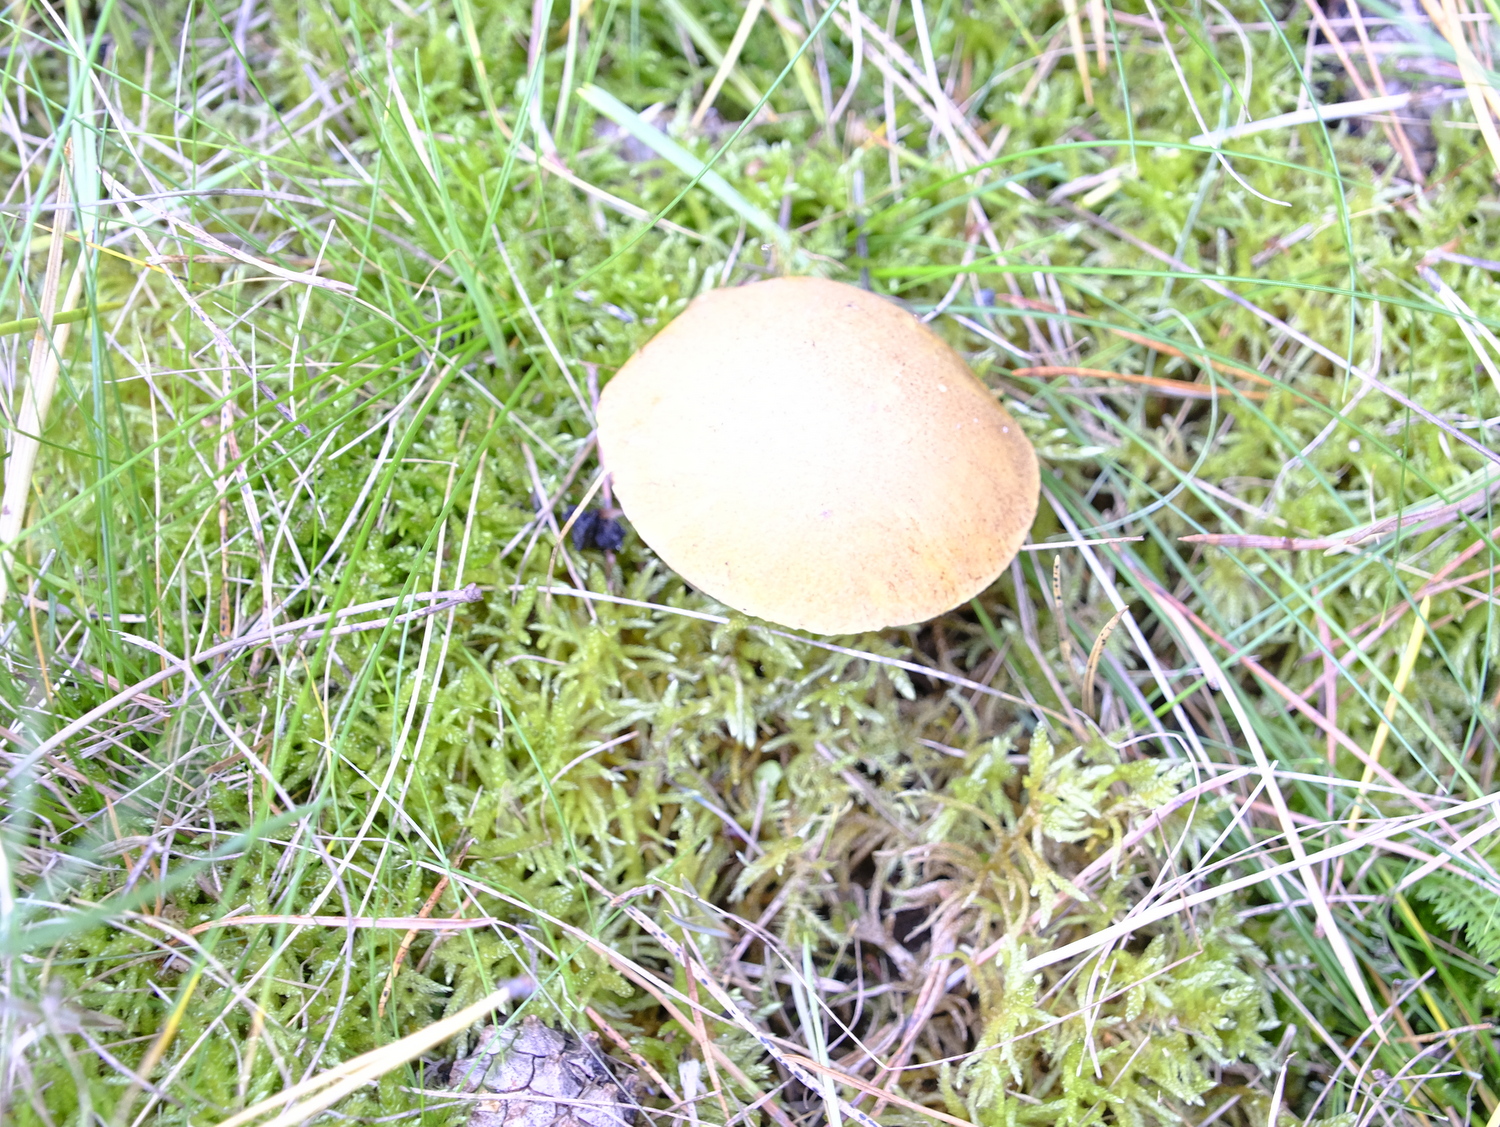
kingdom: Fungi
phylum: Basidiomycota
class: Agaricomycetes
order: Boletales
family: Suillaceae
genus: Suillus
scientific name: Suillus variegatus
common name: broget slimrørhat
